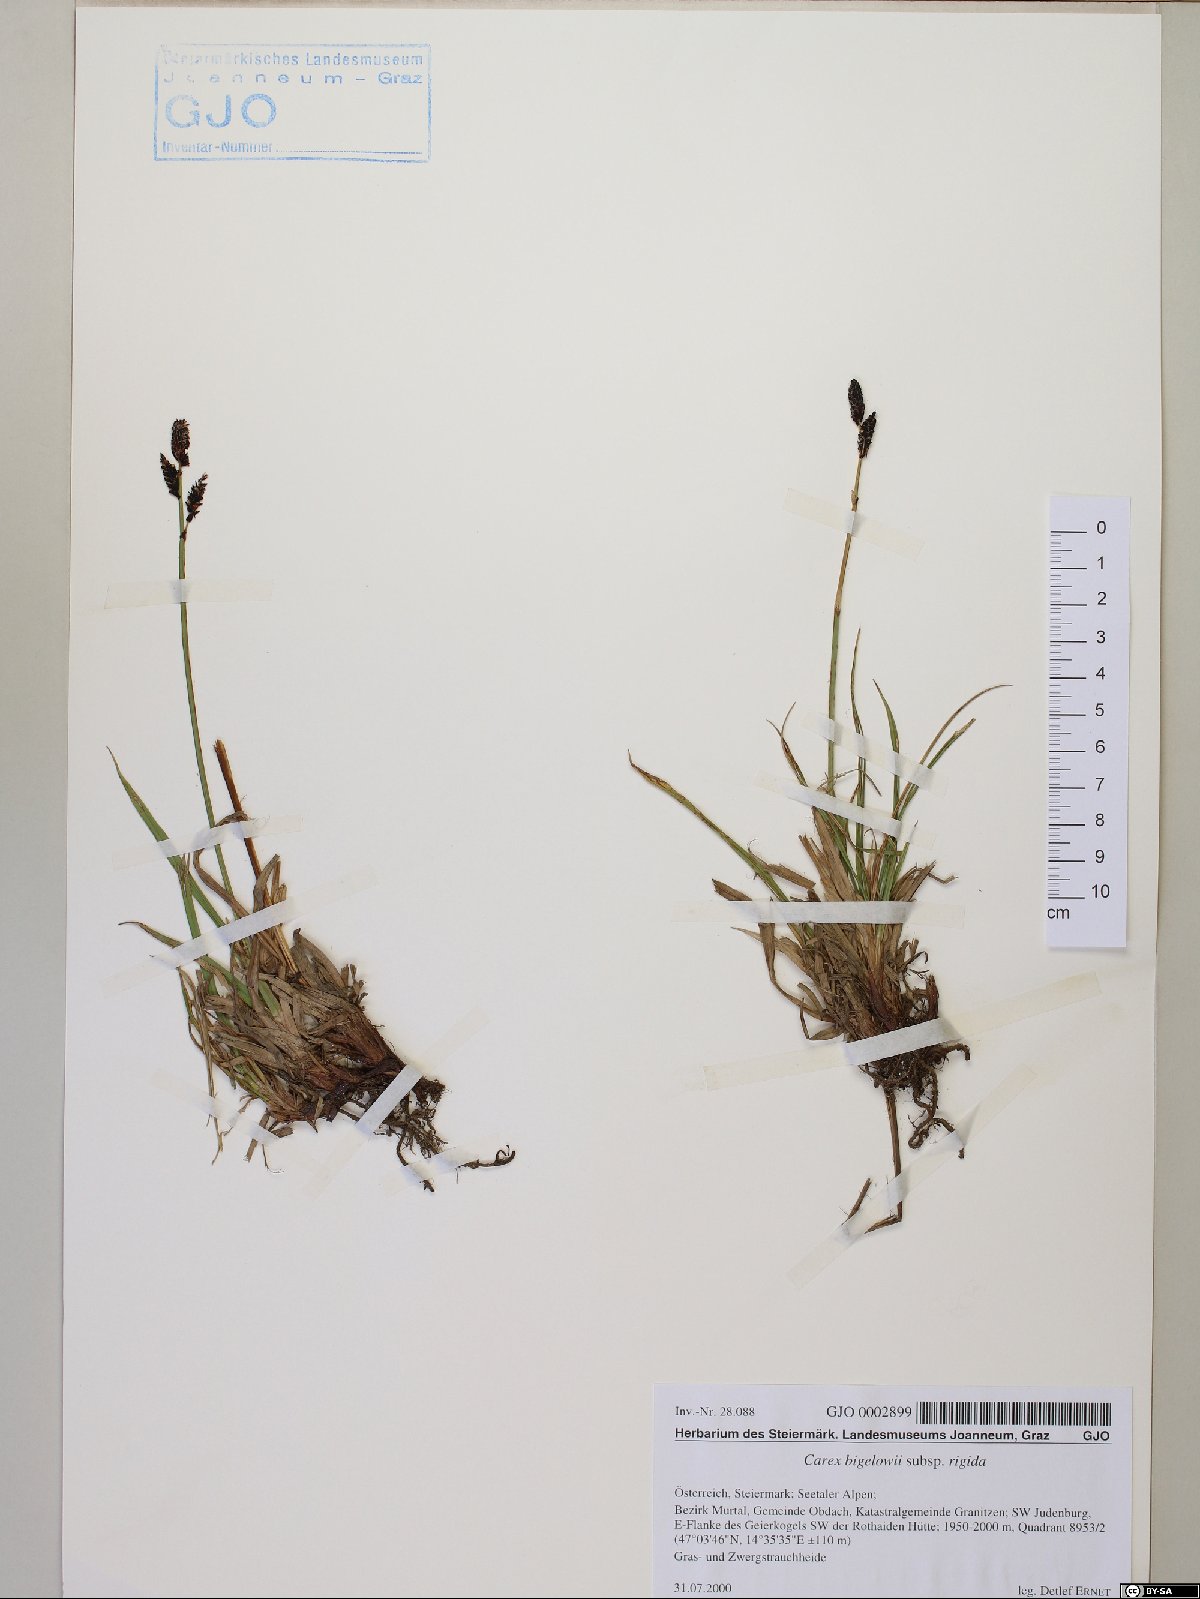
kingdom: Plantae
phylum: Tracheophyta
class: Liliopsida
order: Poales
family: Cyperaceae
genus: Carex
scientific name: Carex dacica
